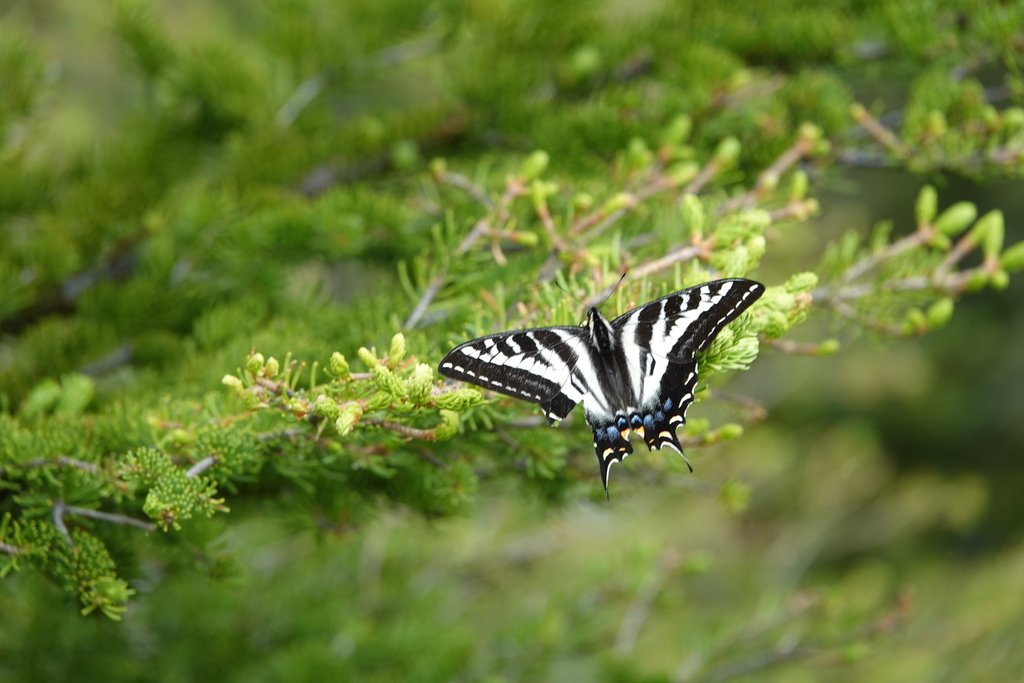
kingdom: Animalia
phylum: Arthropoda
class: Insecta
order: Lepidoptera
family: Papilionidae
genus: Pterourus
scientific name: Pterourus eurymedon
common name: Pale Swallowtail
